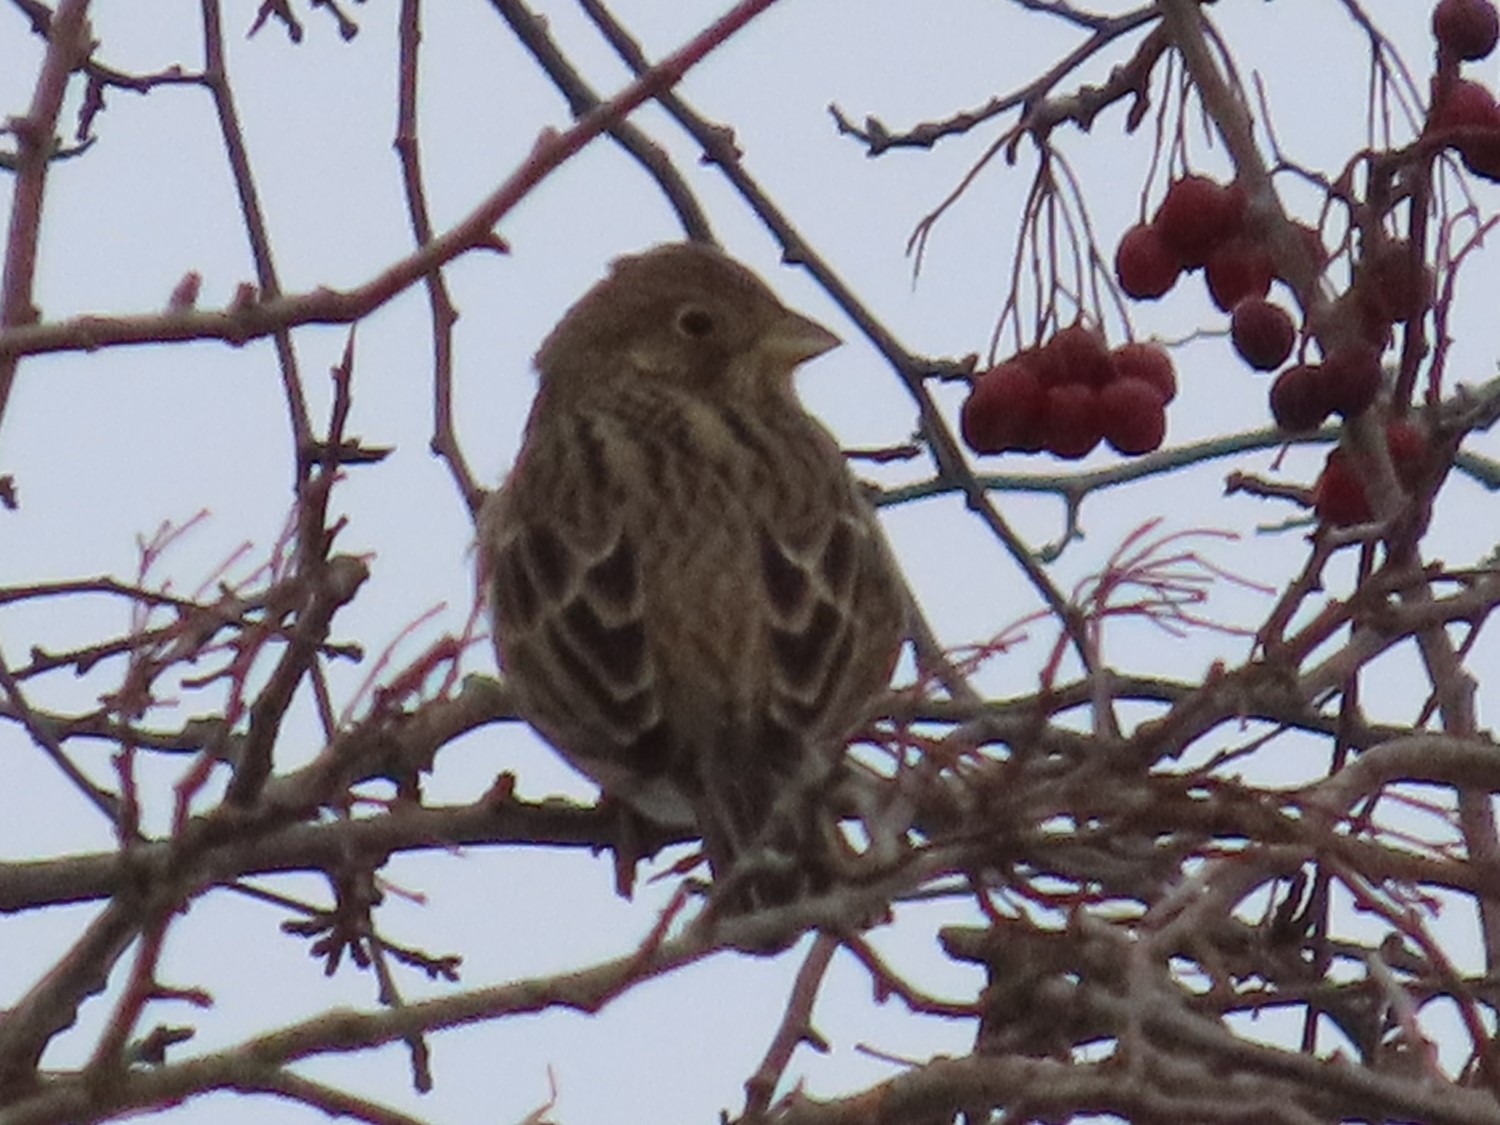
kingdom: Animalia
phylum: Chordata
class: Aves
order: Passeriformes
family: Emberizidae
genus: Emberiza
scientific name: Emberiza calandra
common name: Bomlærke
